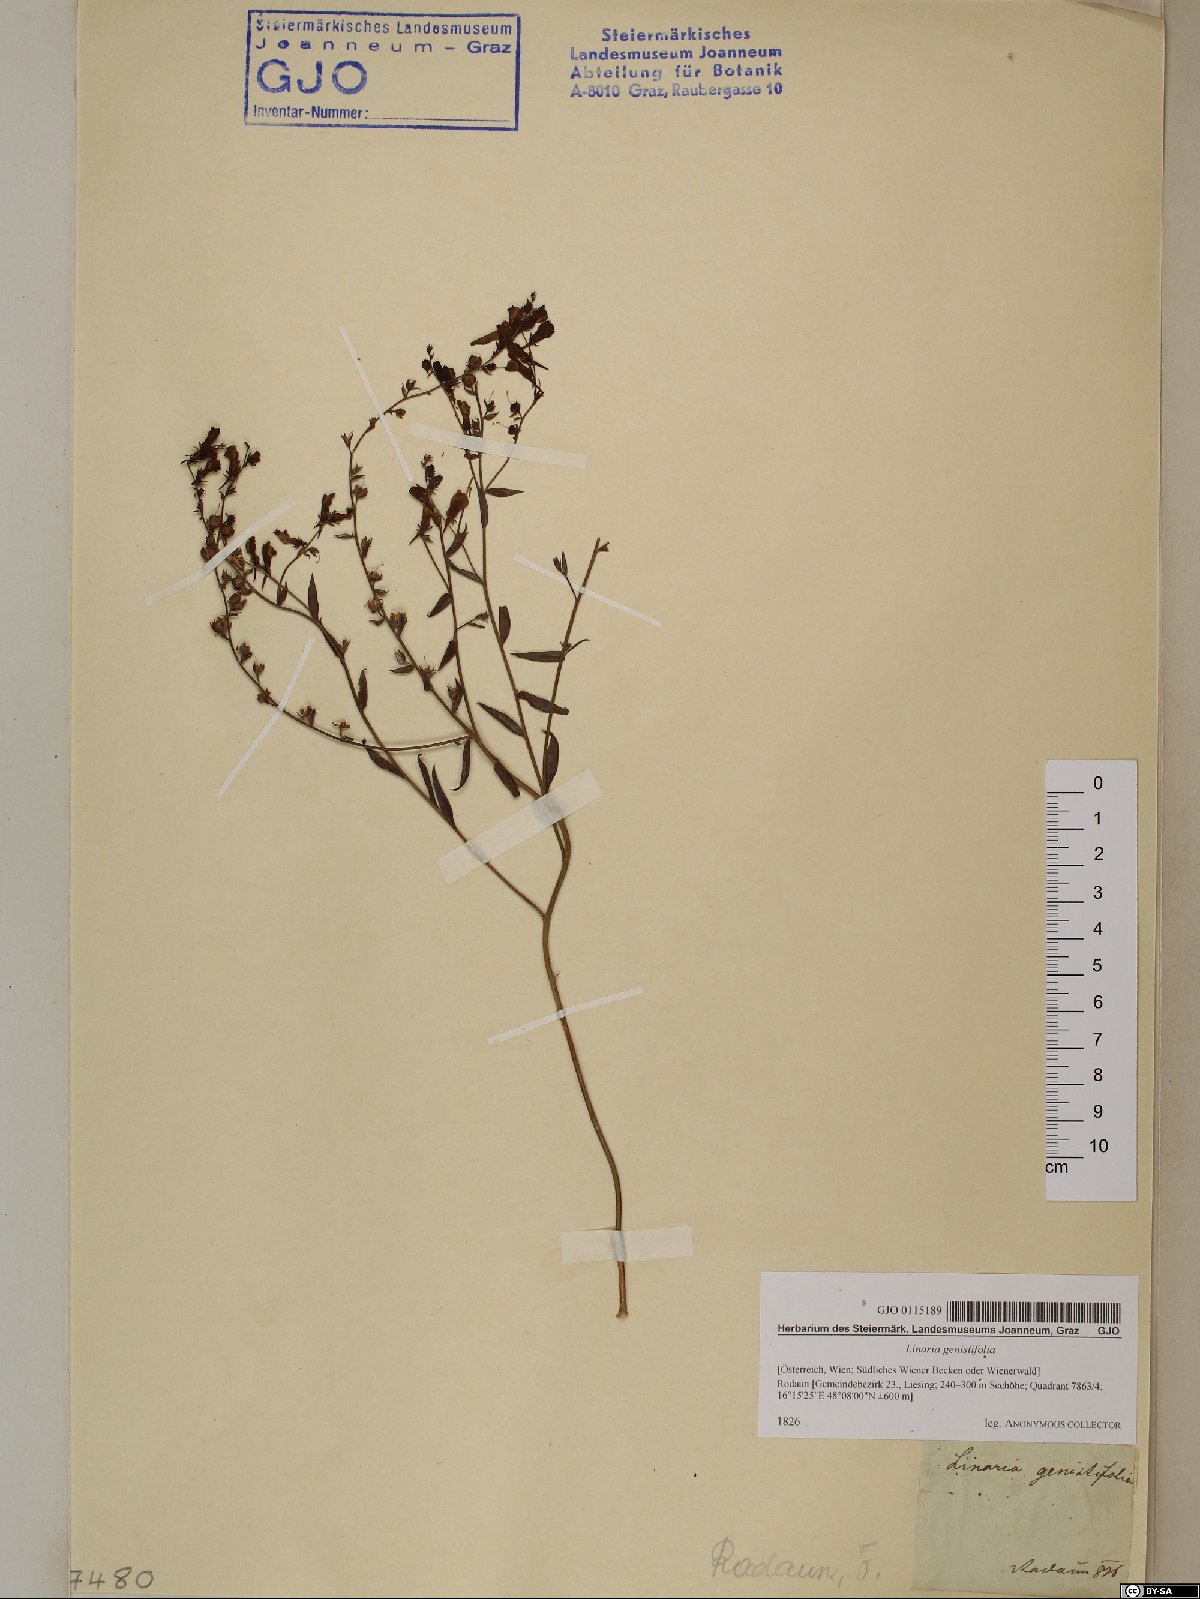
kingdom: Plantae
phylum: Tracheophyta
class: Magnoliopsida
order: Lamiales
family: Plantaginaceae
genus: Linaria
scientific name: Linaria genistifolia
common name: Broomleaf toadflax
